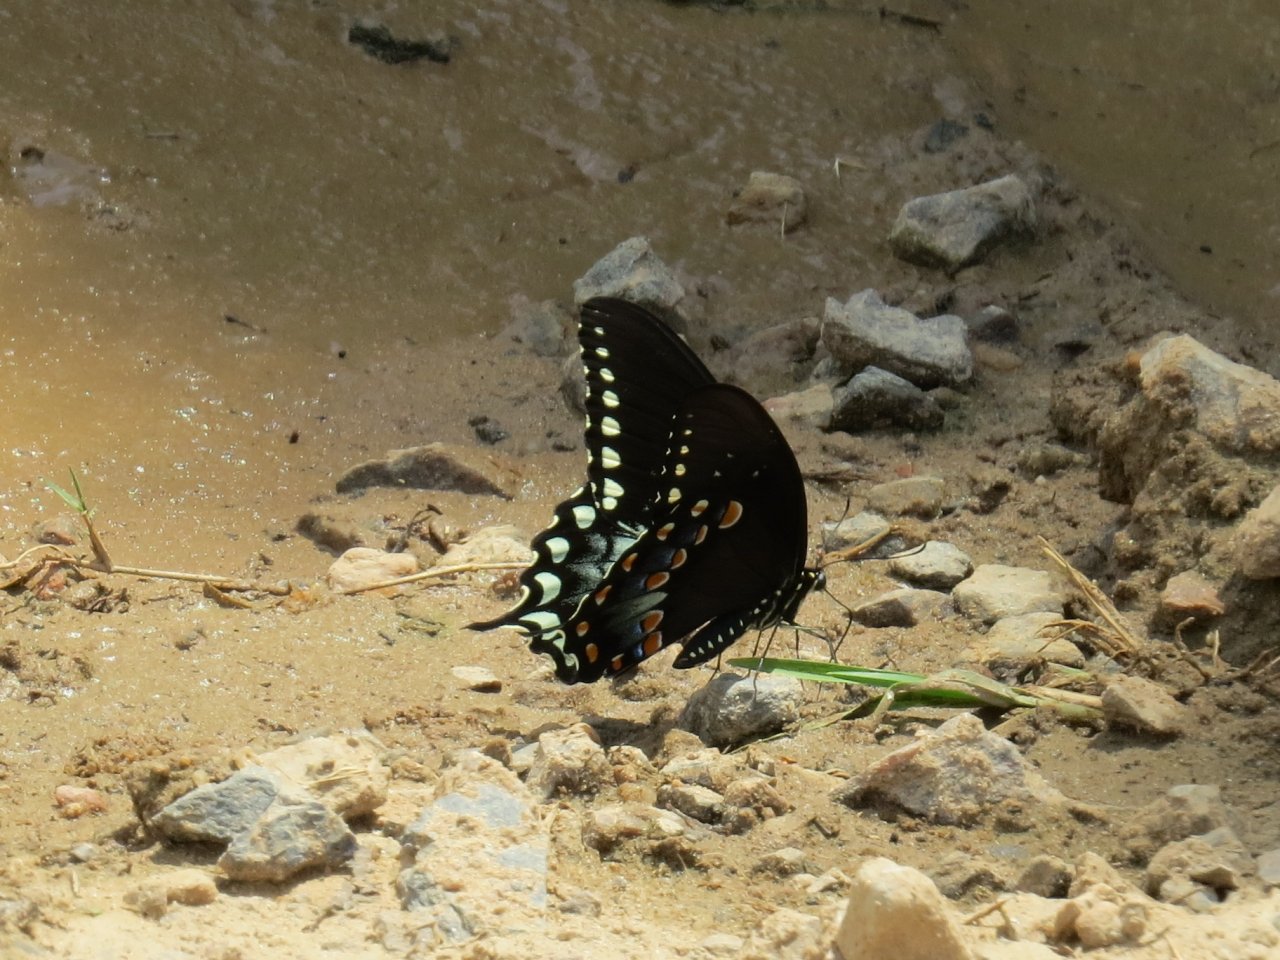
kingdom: Animalia
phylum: Arthropoda
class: Insecta
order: Lepidoptera
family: Papilionidae
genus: Pterourus
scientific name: Pterourus troilus
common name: Spicebush Swallowtail
